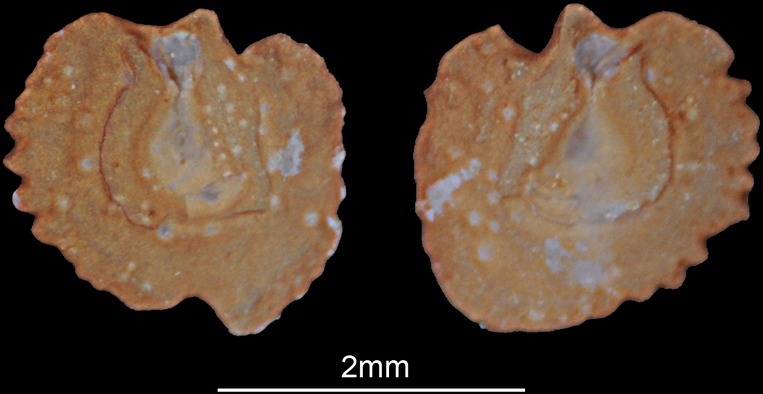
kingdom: Animalia
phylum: Chordata
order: Cypriniformes
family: Cyprinidae
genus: Acanthobrama
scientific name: Acanthobrama marmid
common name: Mesopotamian bream
